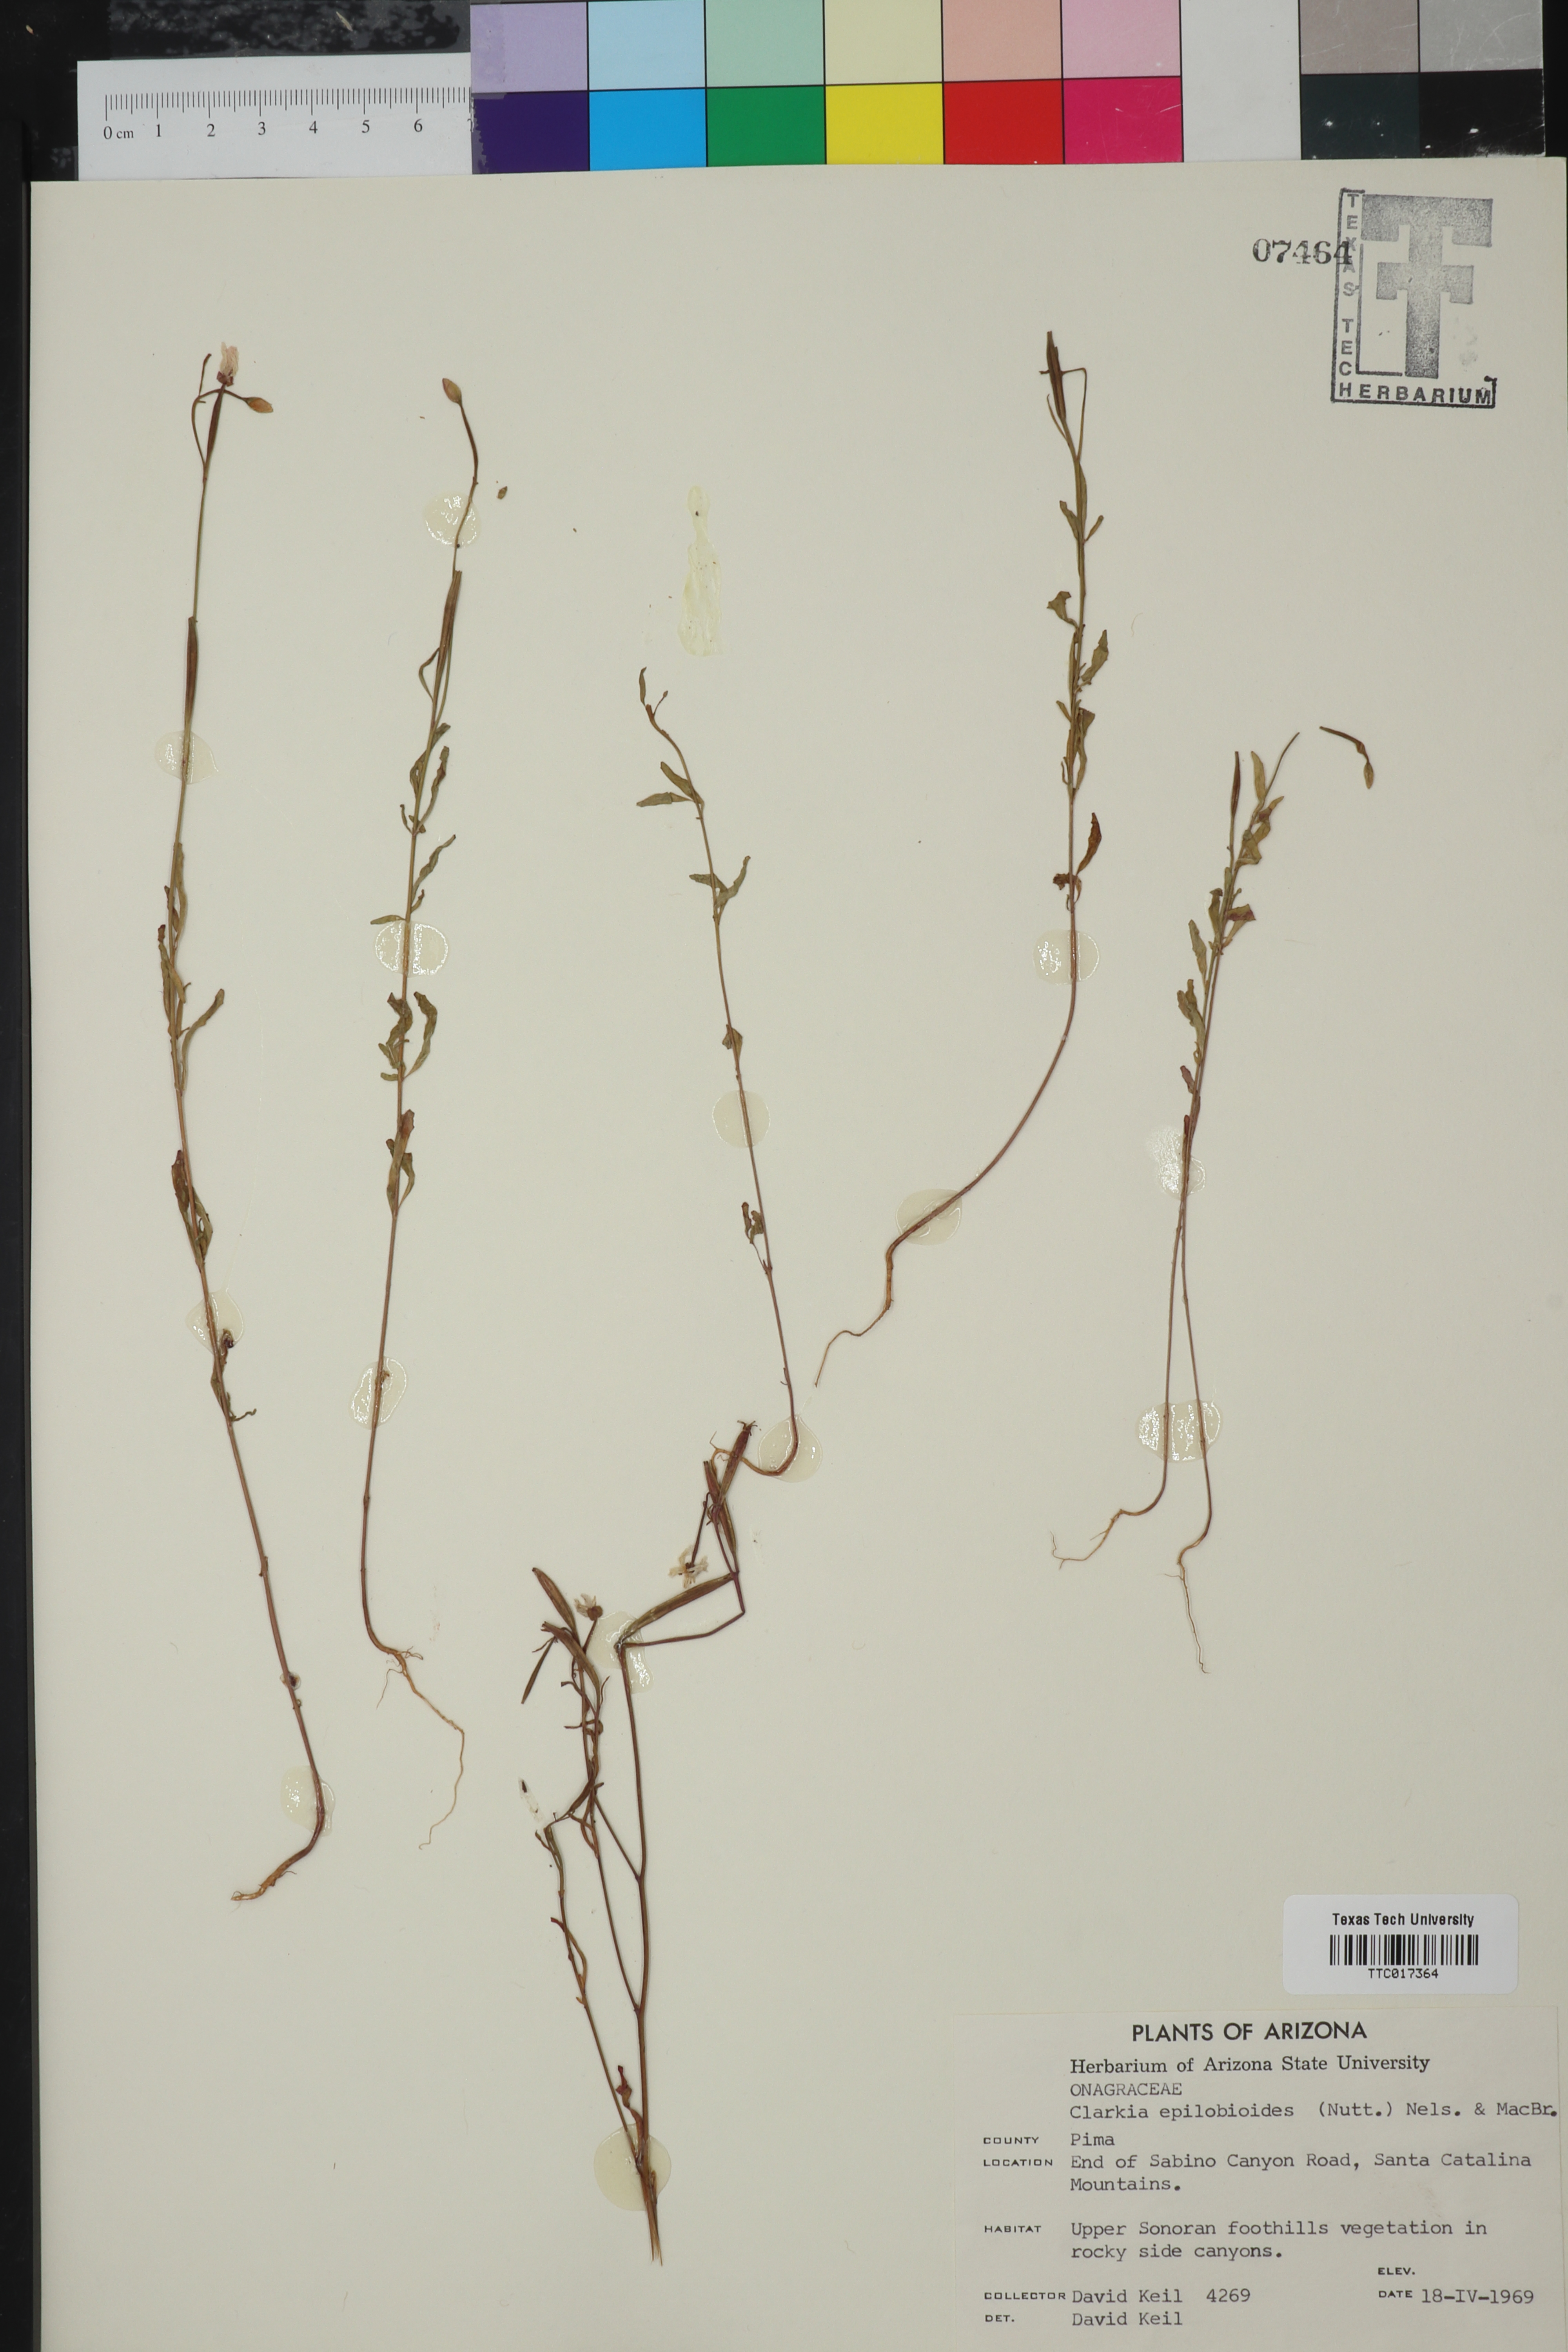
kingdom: Plantae
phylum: Tracheophyta
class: Magnoliopsida
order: Myrtales
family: Onagraceae
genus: Clarkia
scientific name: Clarkia epilobioides
